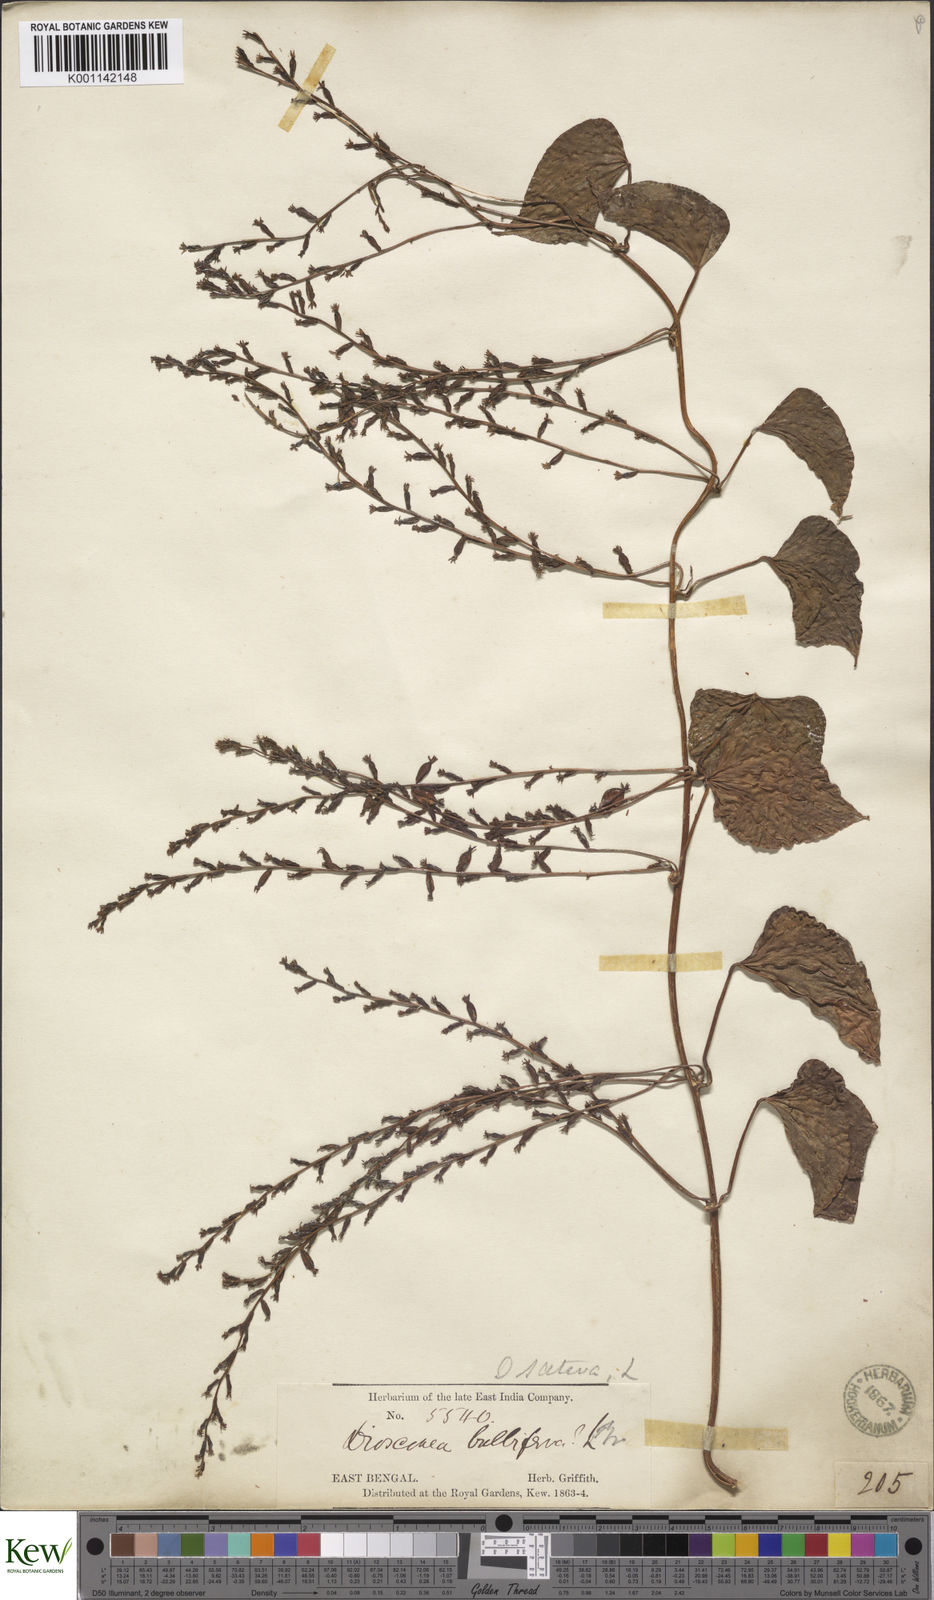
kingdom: Plantae
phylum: Tracheophyta
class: Liliopsida
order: Dioscoreales
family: Dioscoreaceae
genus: Dioscorea
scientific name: Dioscorea bulbifera
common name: Air yam
